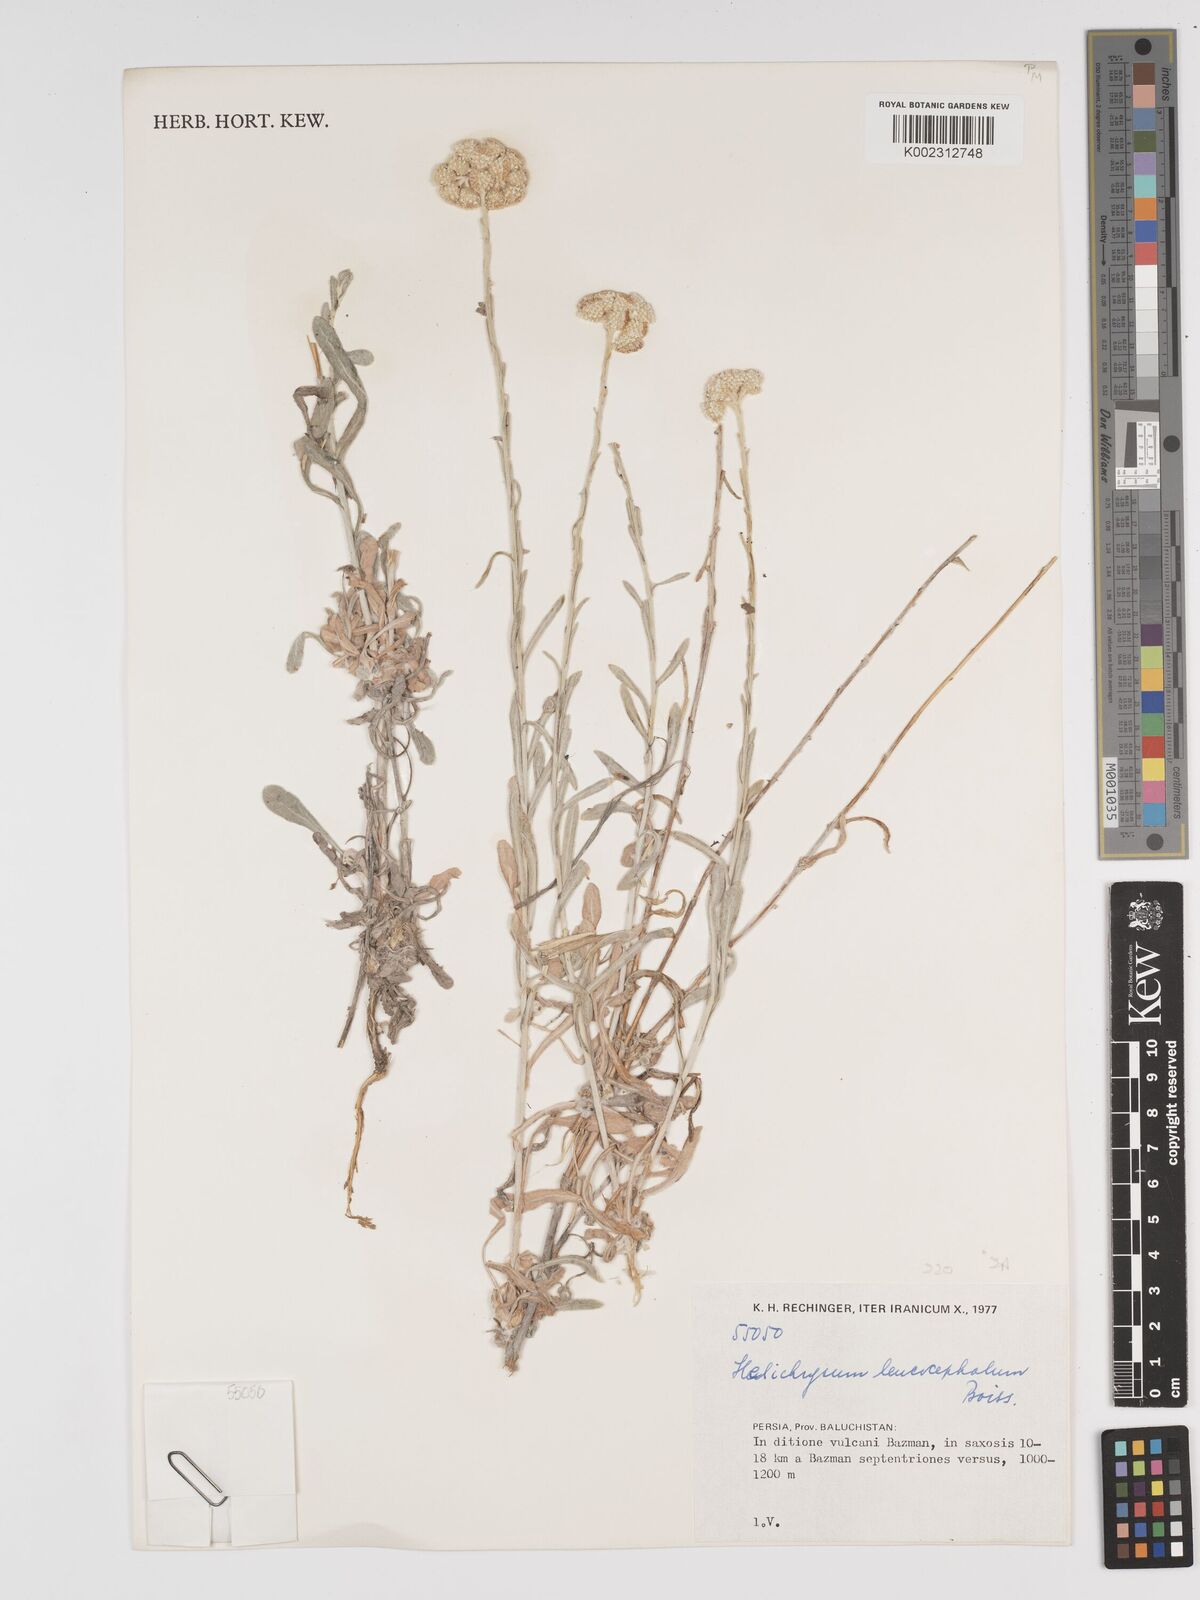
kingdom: Plantae
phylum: Tracheophyta
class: Magnoliopsida
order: Asterales
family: Asteraceae
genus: Helichrysum
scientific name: Helichrysum leucocephalum
